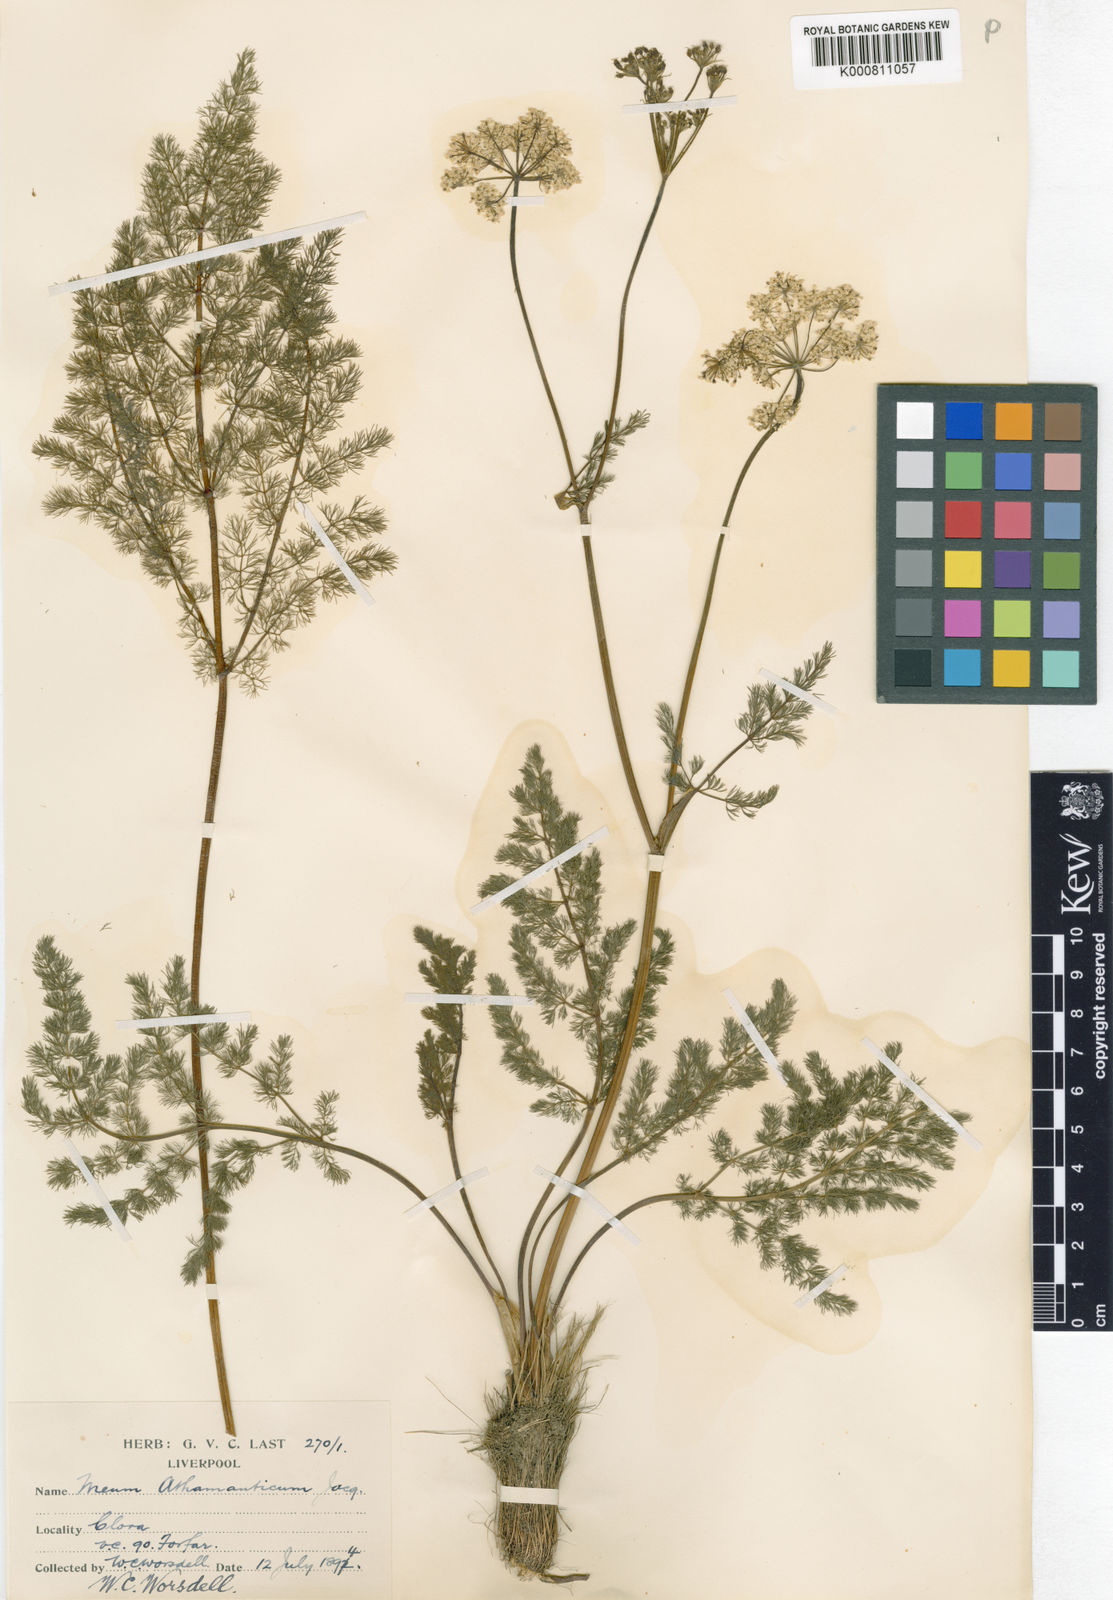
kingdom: Plantae
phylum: Tracheophyta
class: Magnoliopsida
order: Apiales
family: Apiaceae
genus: Meum
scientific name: Meum athamanticum
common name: Spignel
